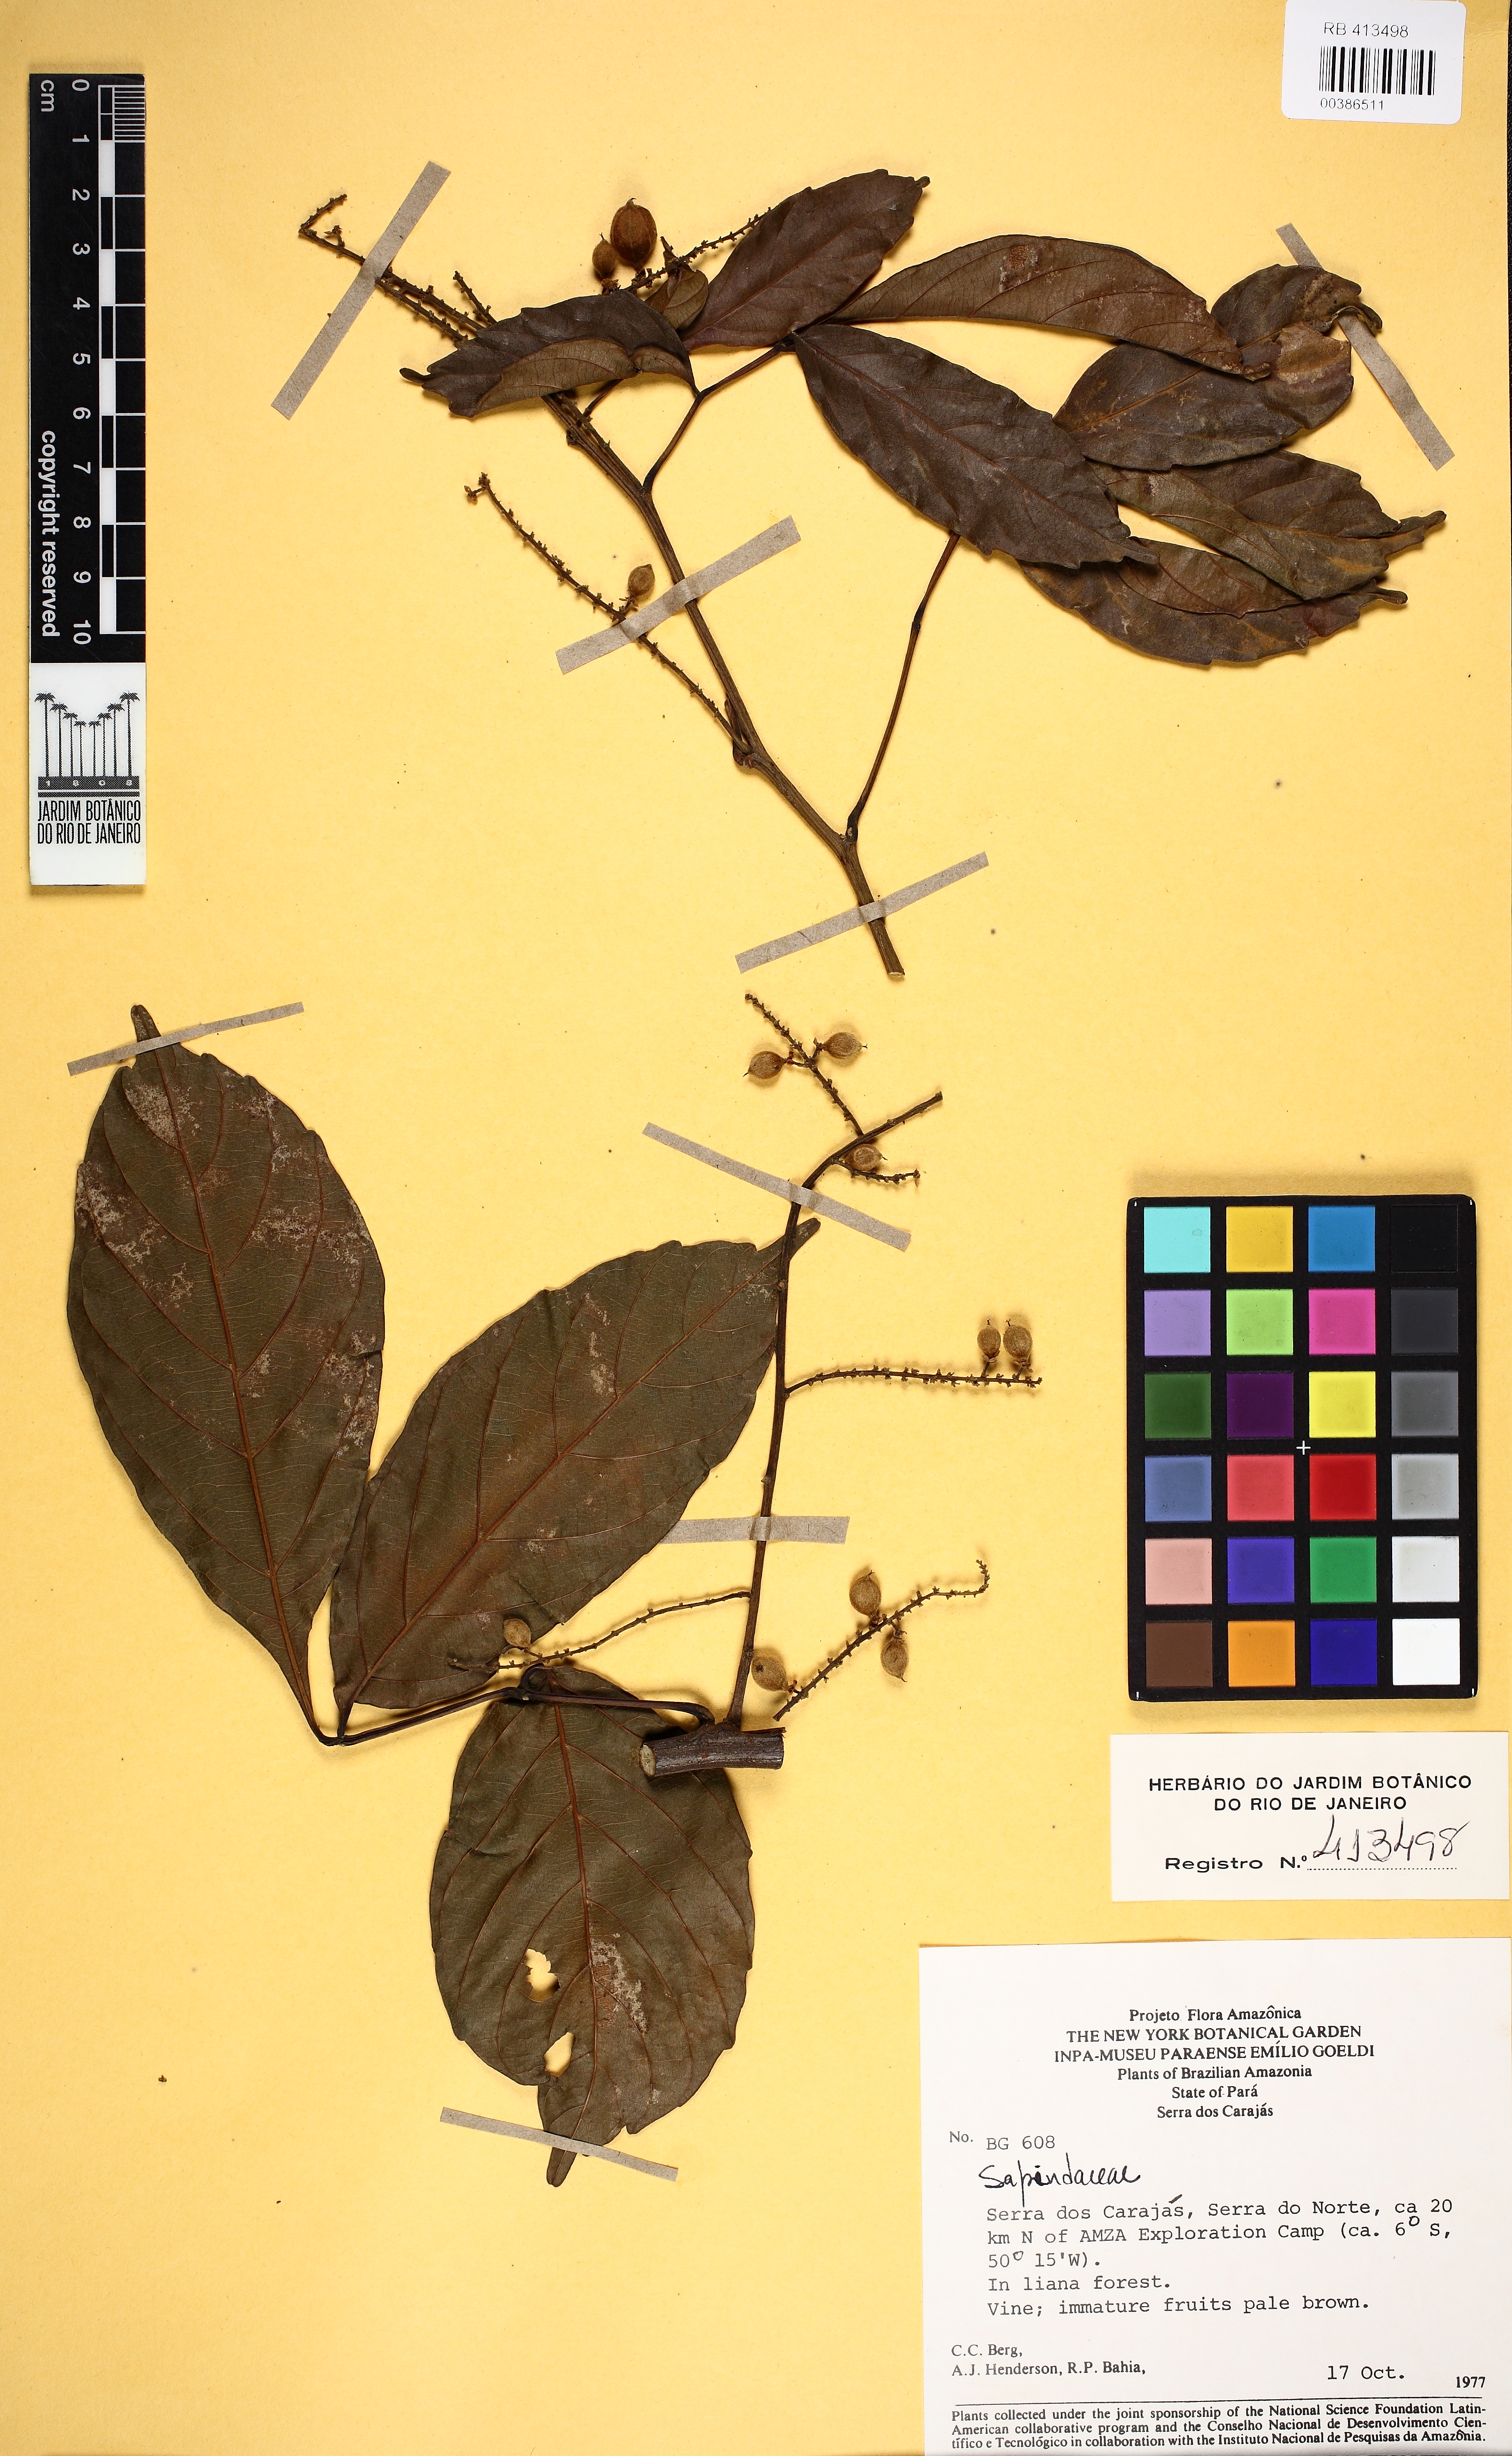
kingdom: Plantae
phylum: Tracheophyta
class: Magnoliopsida
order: Sapindales
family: Sapindaceae
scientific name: Sapindaceae
